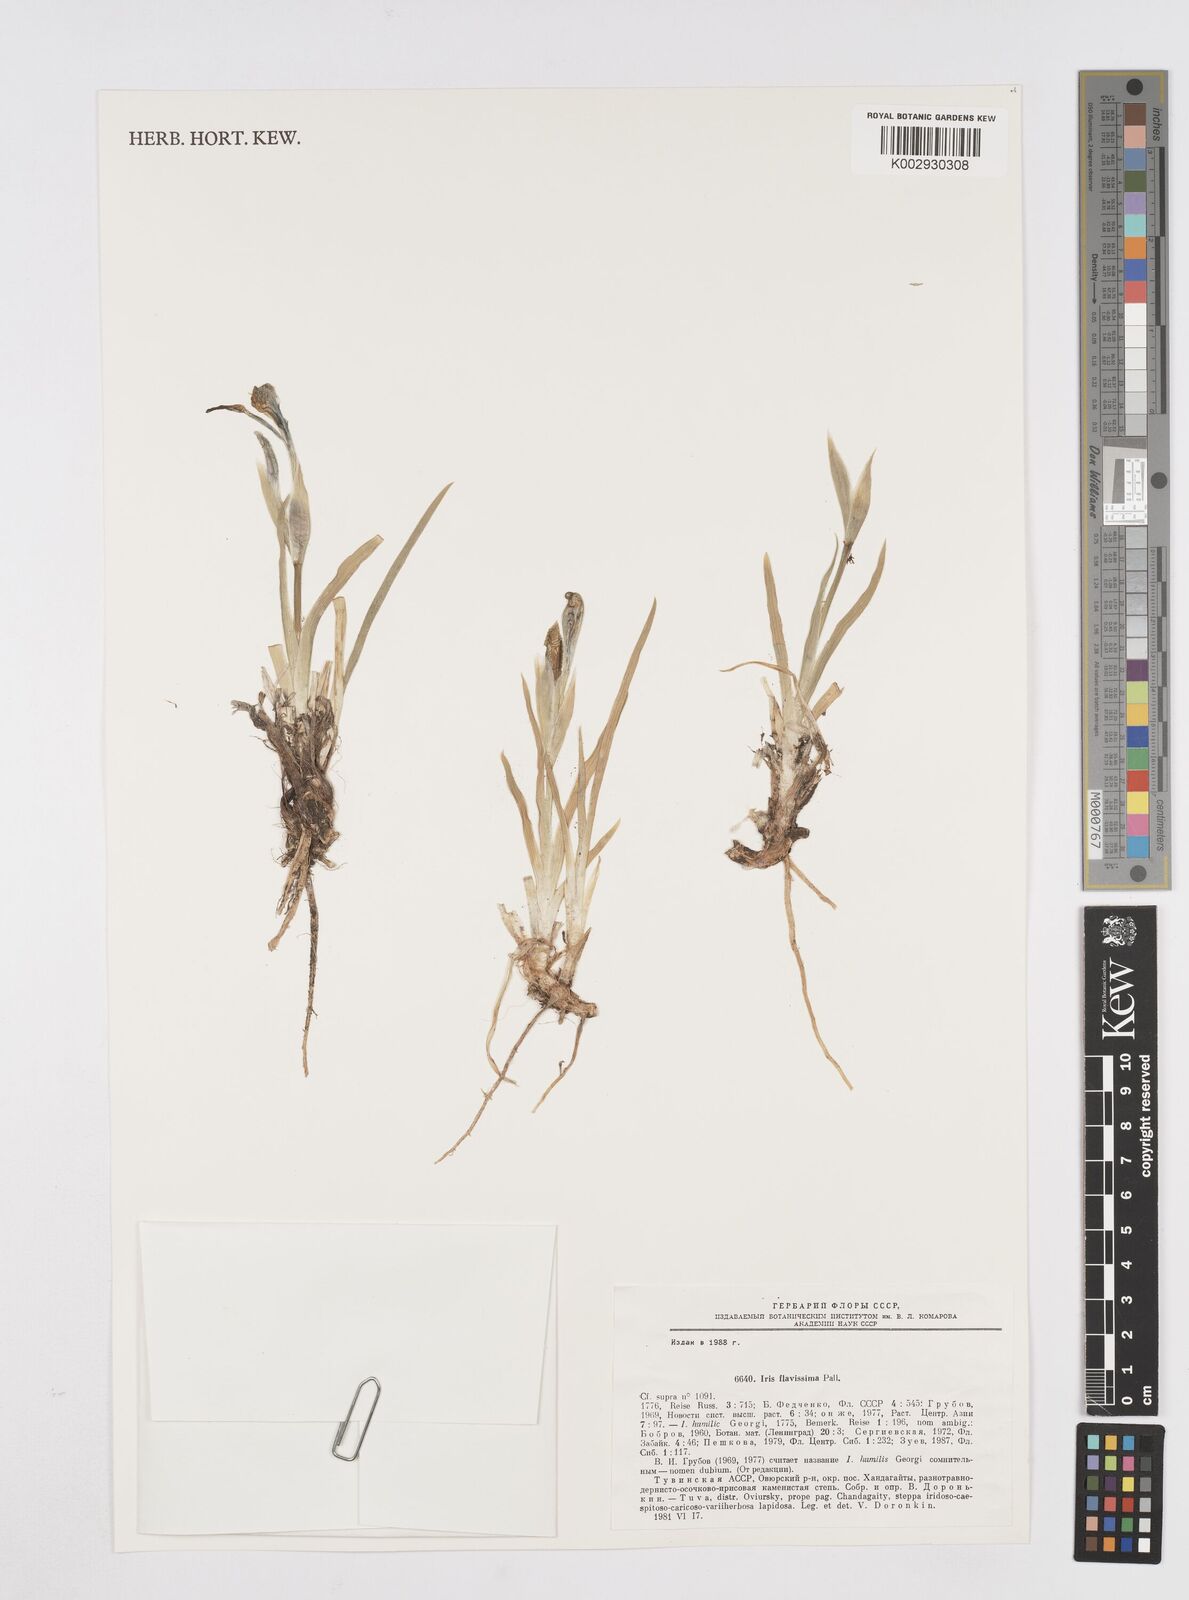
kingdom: Plantae
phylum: Tracheophyta
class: Liliopsida
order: Asparagales
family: Iridaceae
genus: Iris
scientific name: Iris humilis
